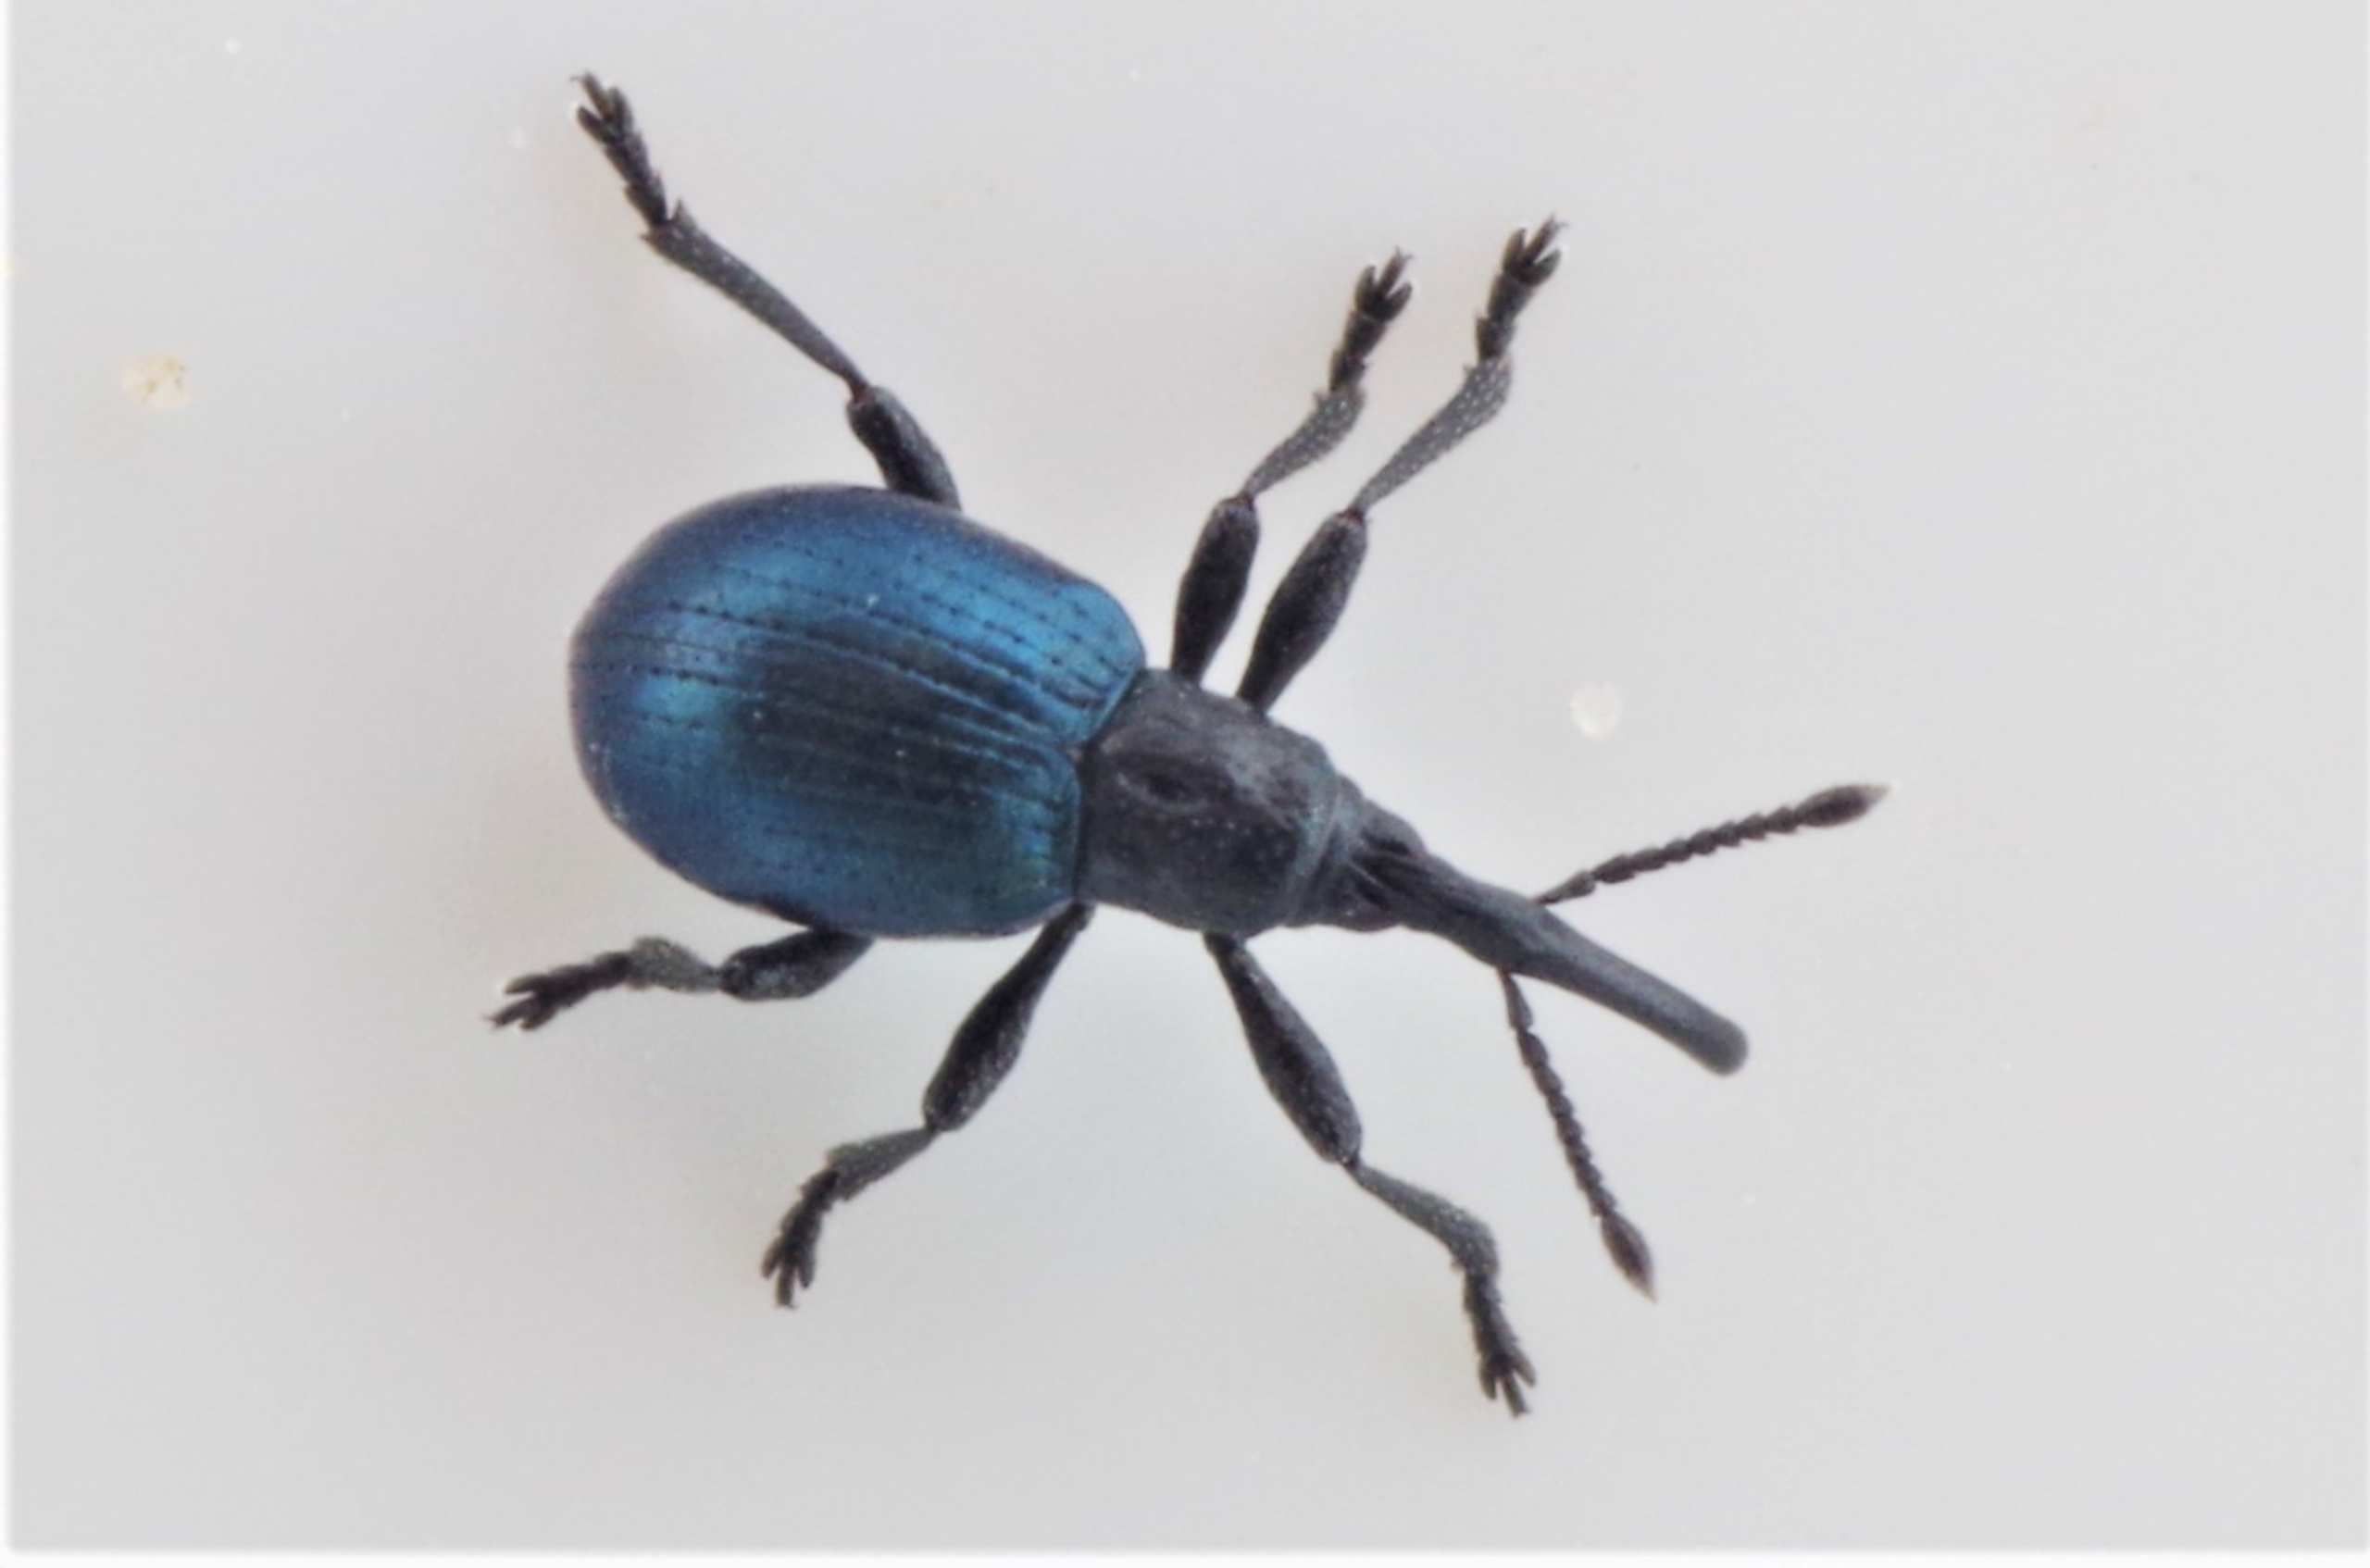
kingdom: Animalia
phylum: Arthropoda
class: Insecta
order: Coleoptera
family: Apionidae
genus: Taphrotopium
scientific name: Taphrotopium sulcifrons
